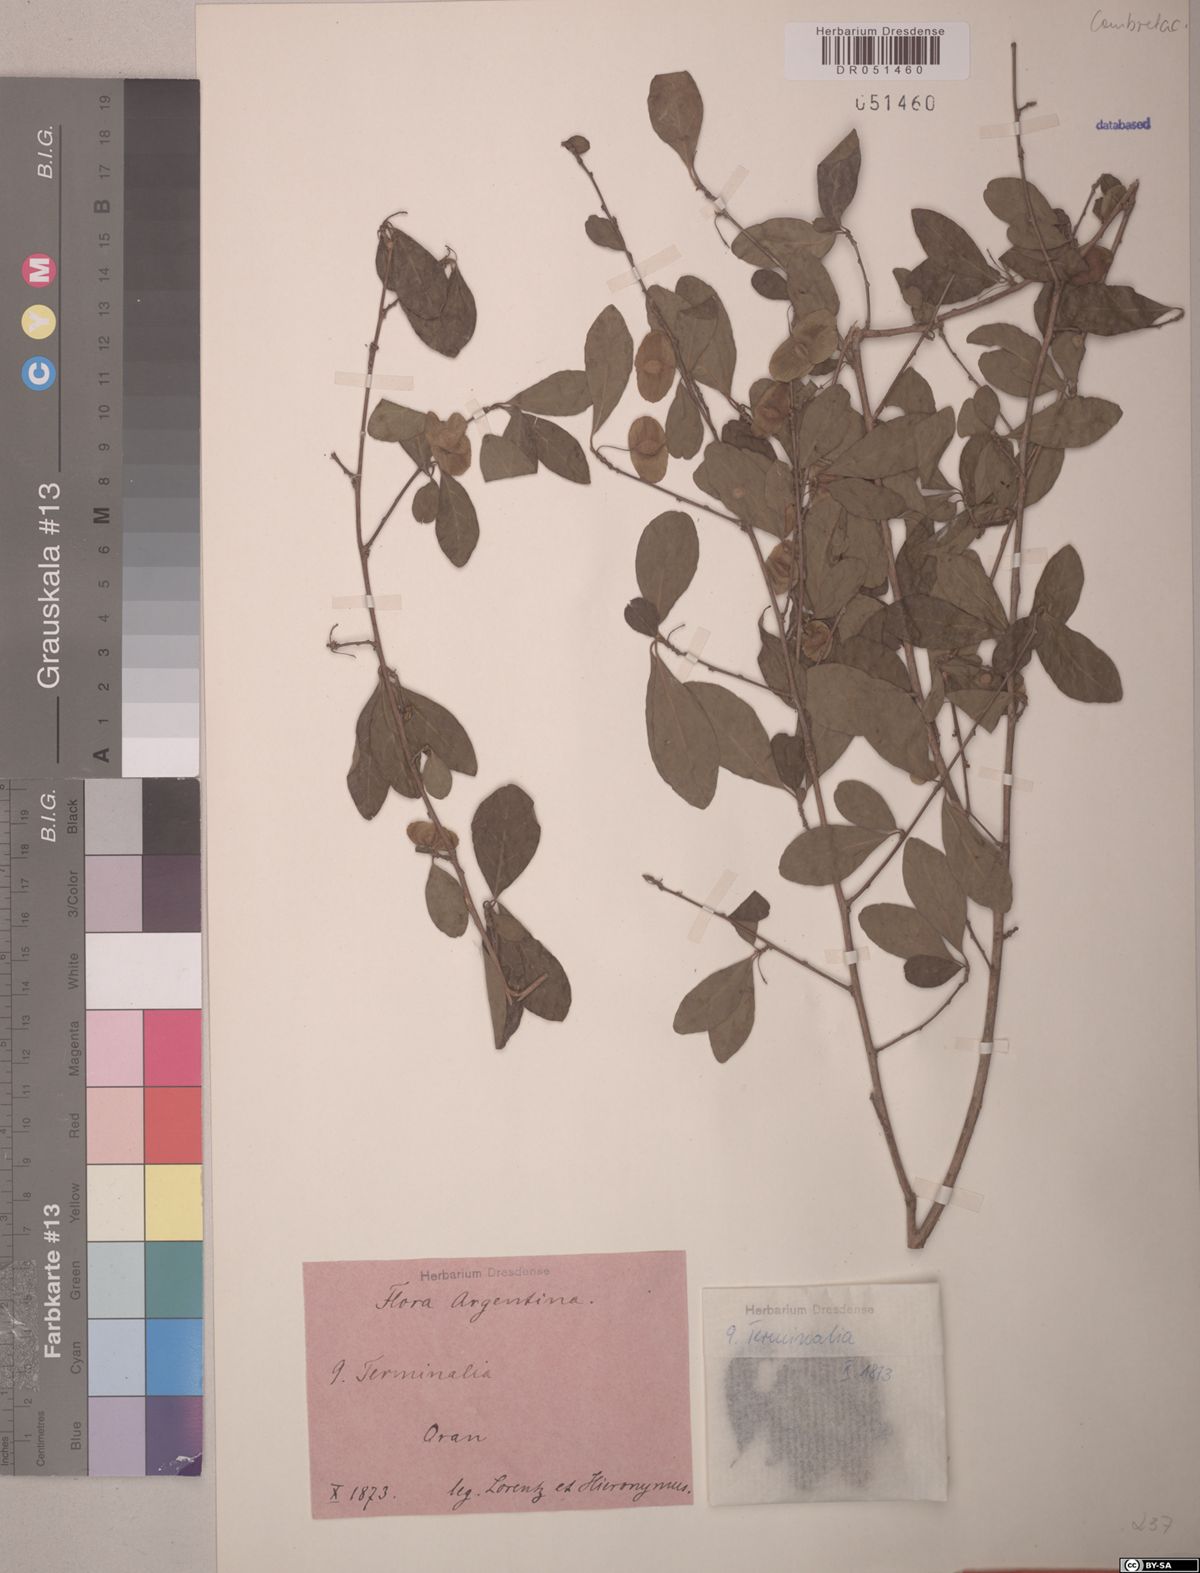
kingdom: Plantae
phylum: Tracheophyta
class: Magnoliopsida
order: Myrtales
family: Combretaceae
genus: Terminalia
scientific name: Terminalia triflora
